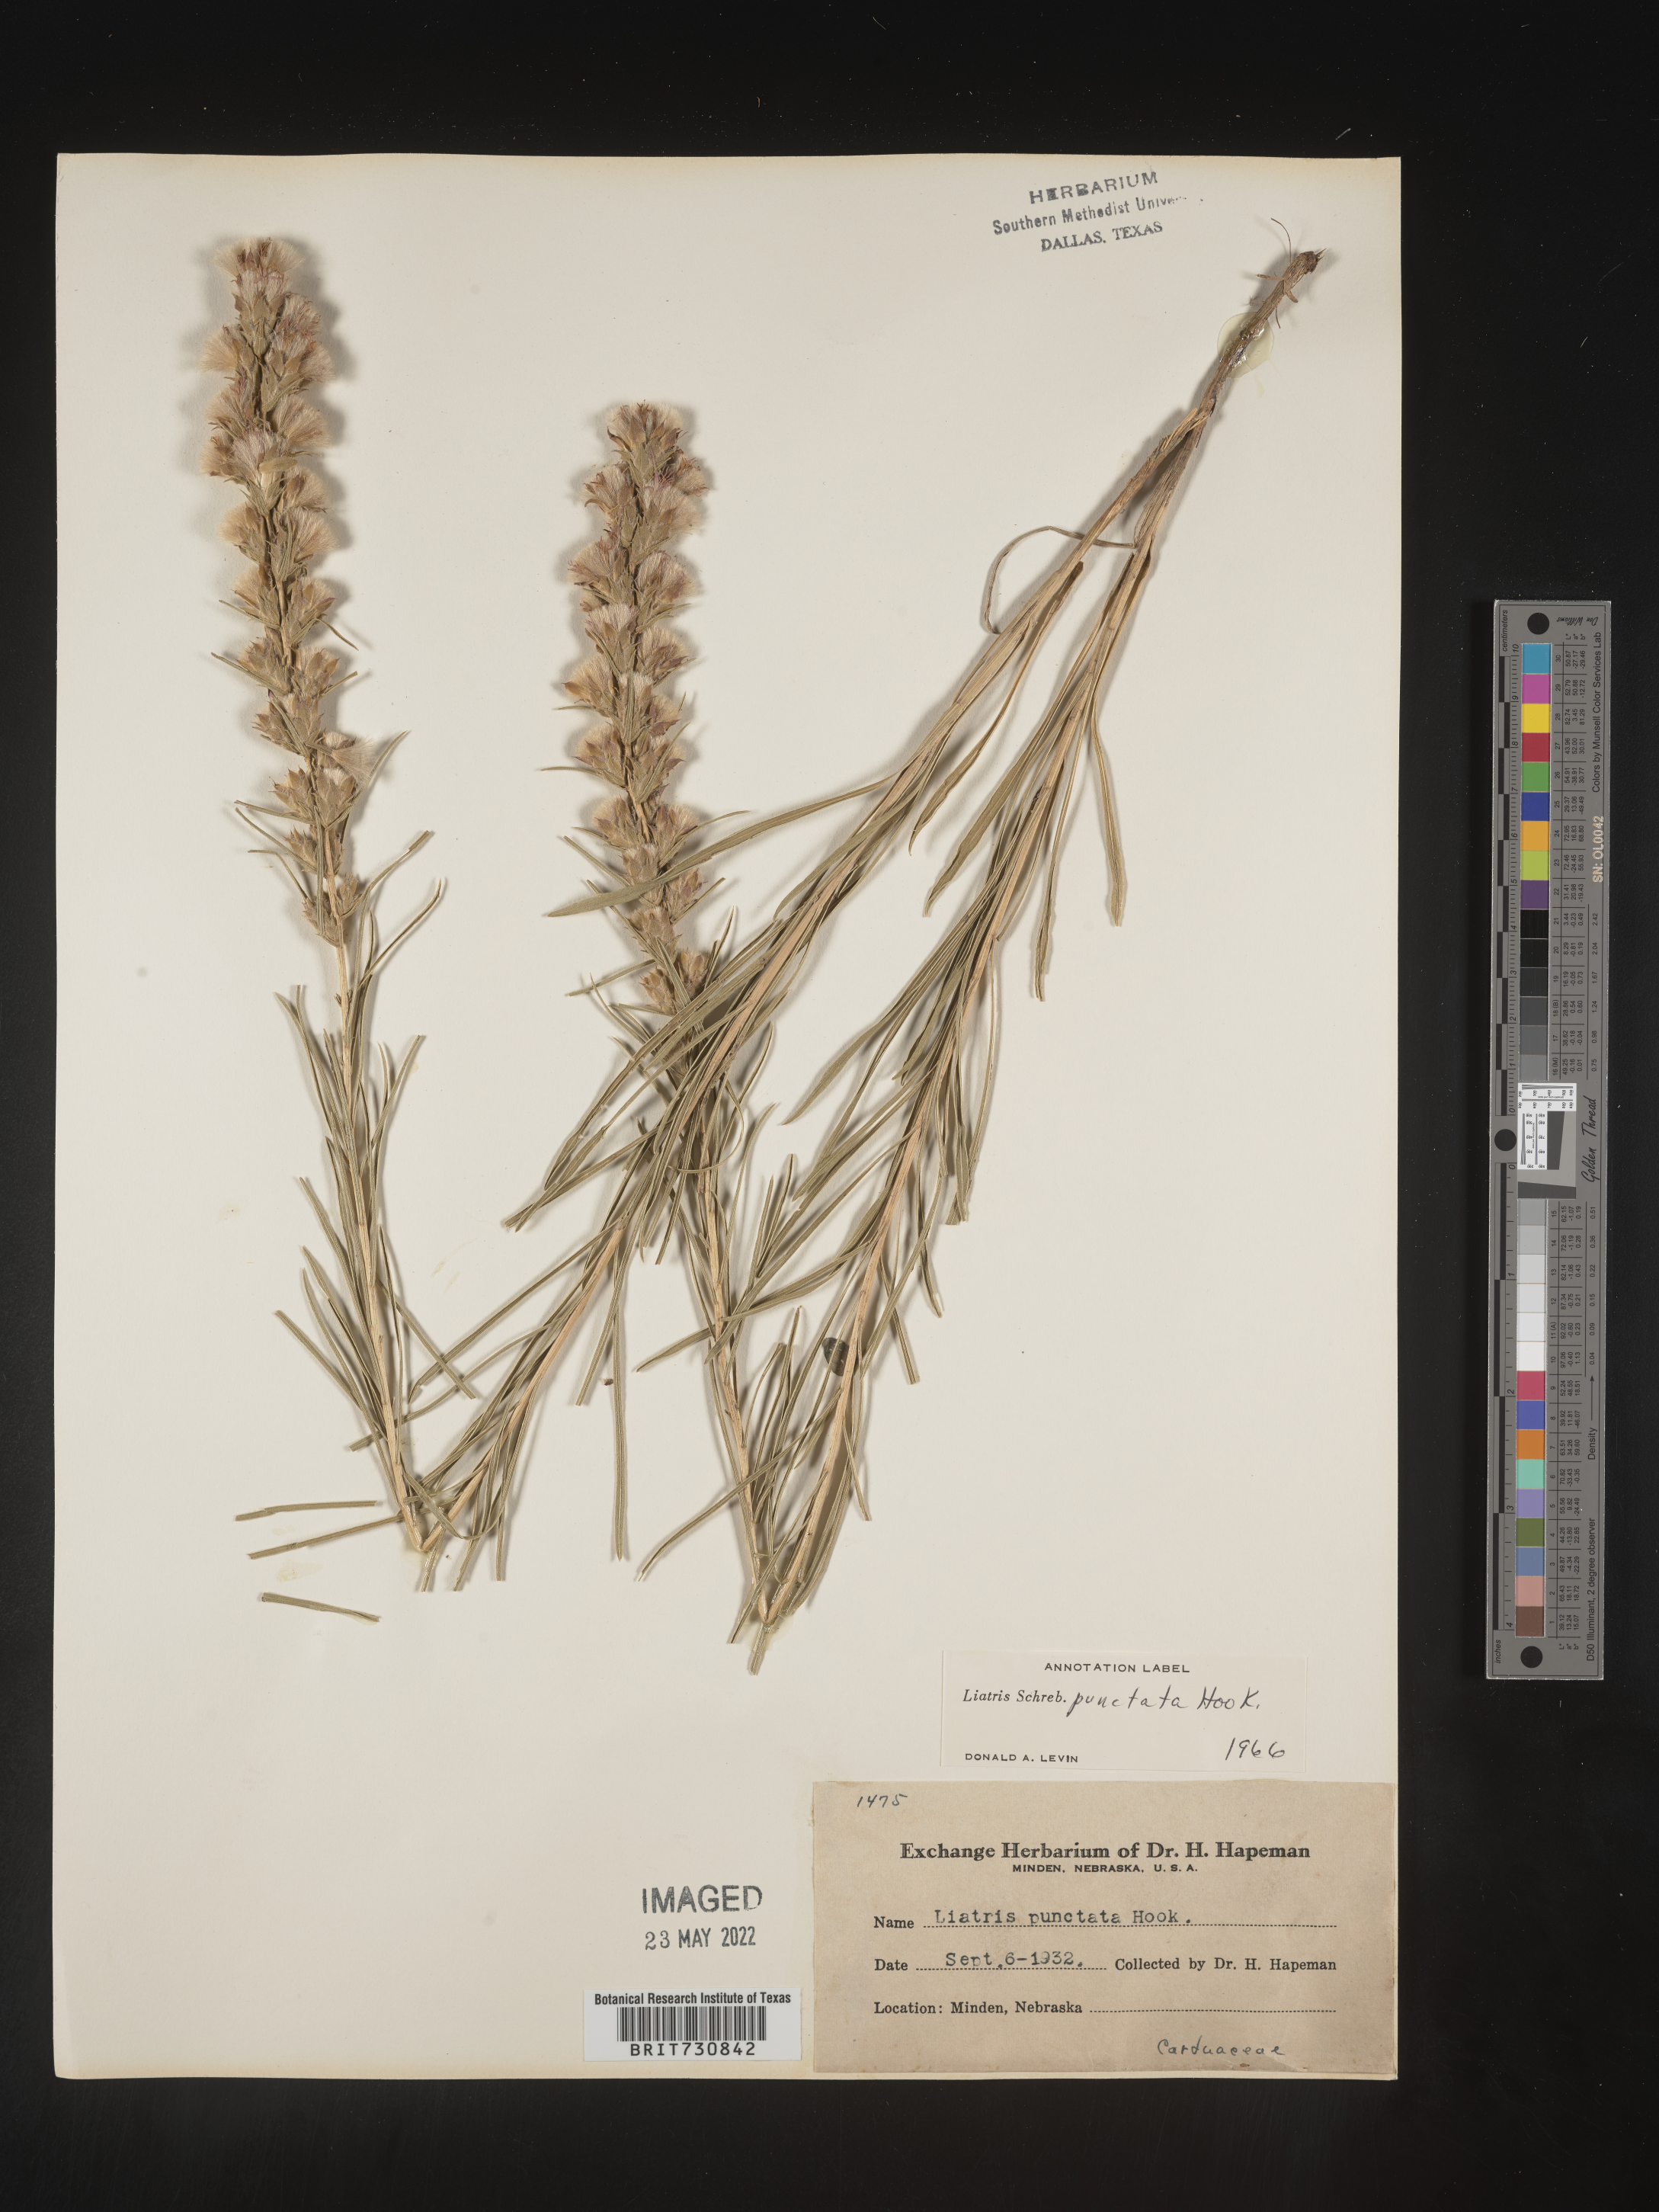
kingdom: Plantae
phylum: Tracheophyta
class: Magnoliopsida
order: Asterales
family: Asteraceae
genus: Liatris
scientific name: Liatris punctata
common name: Dotted gayfeather
